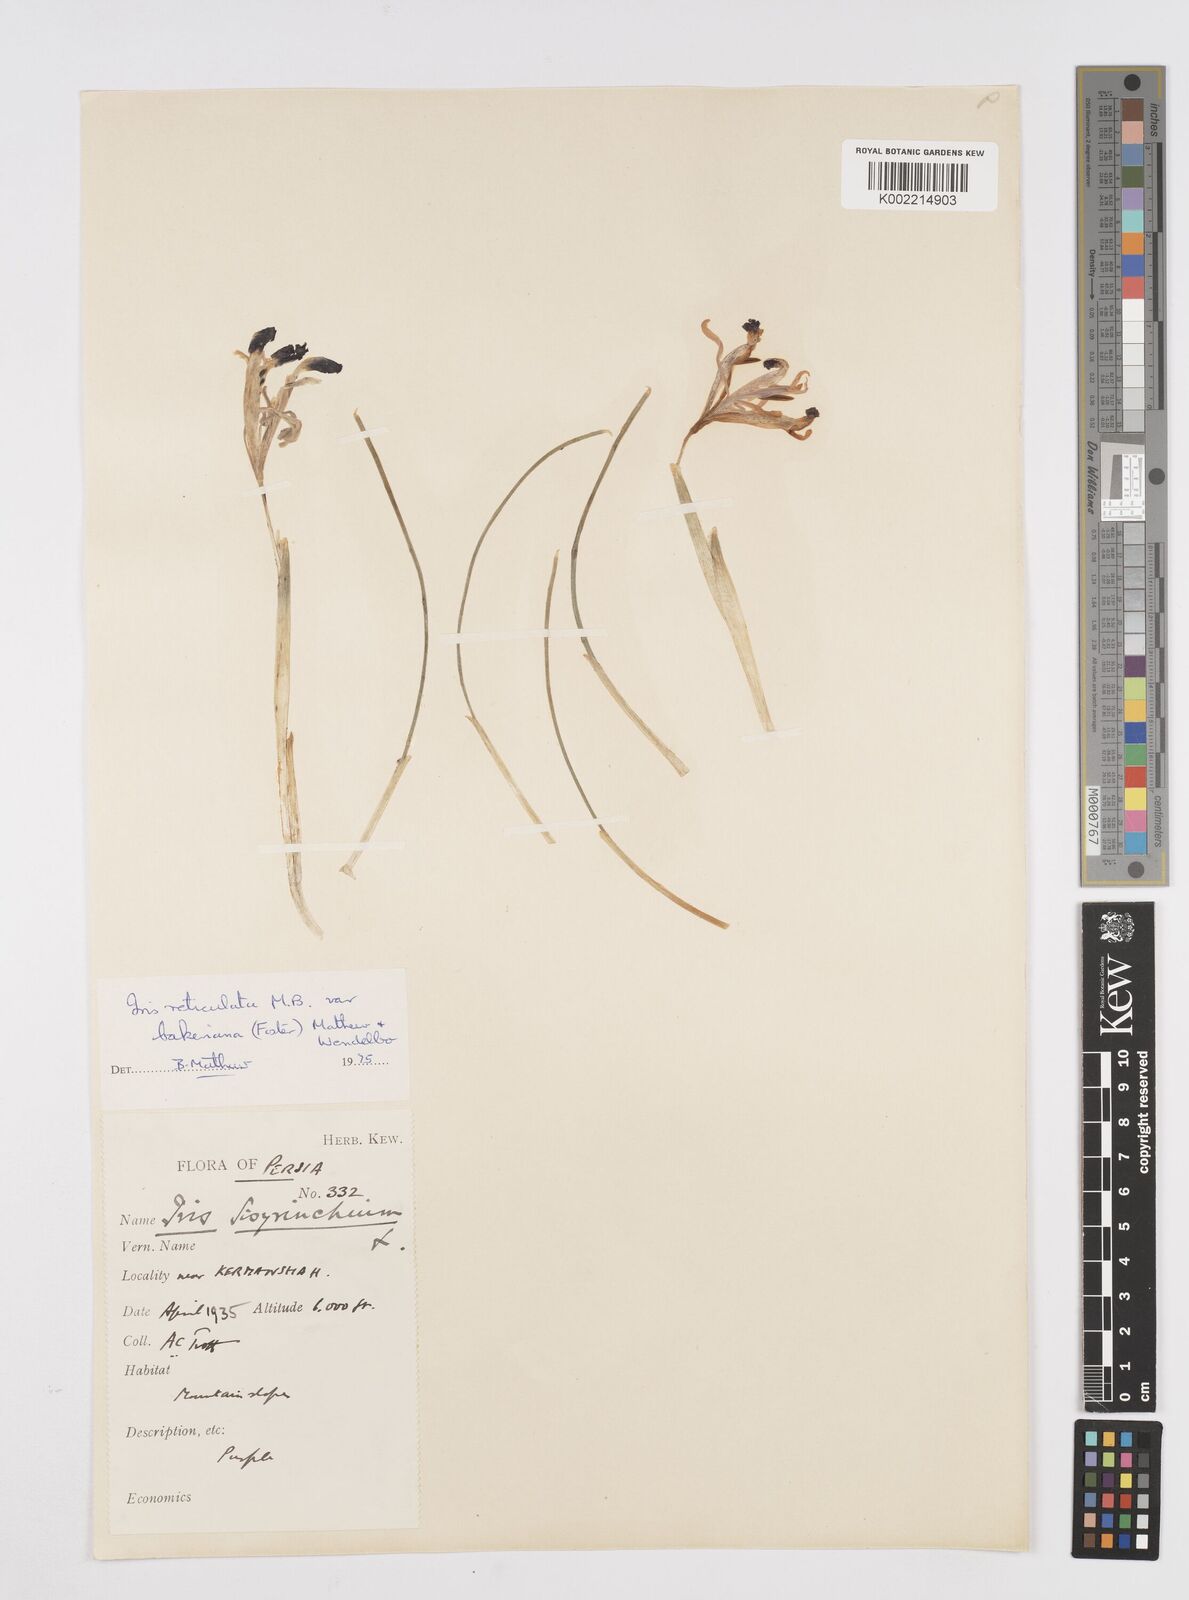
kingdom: Plantae
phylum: Tracheophyta
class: Liliopsida
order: Asparagales
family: Iridaceae
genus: Iris
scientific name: Iris reticulata
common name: Netted iris
